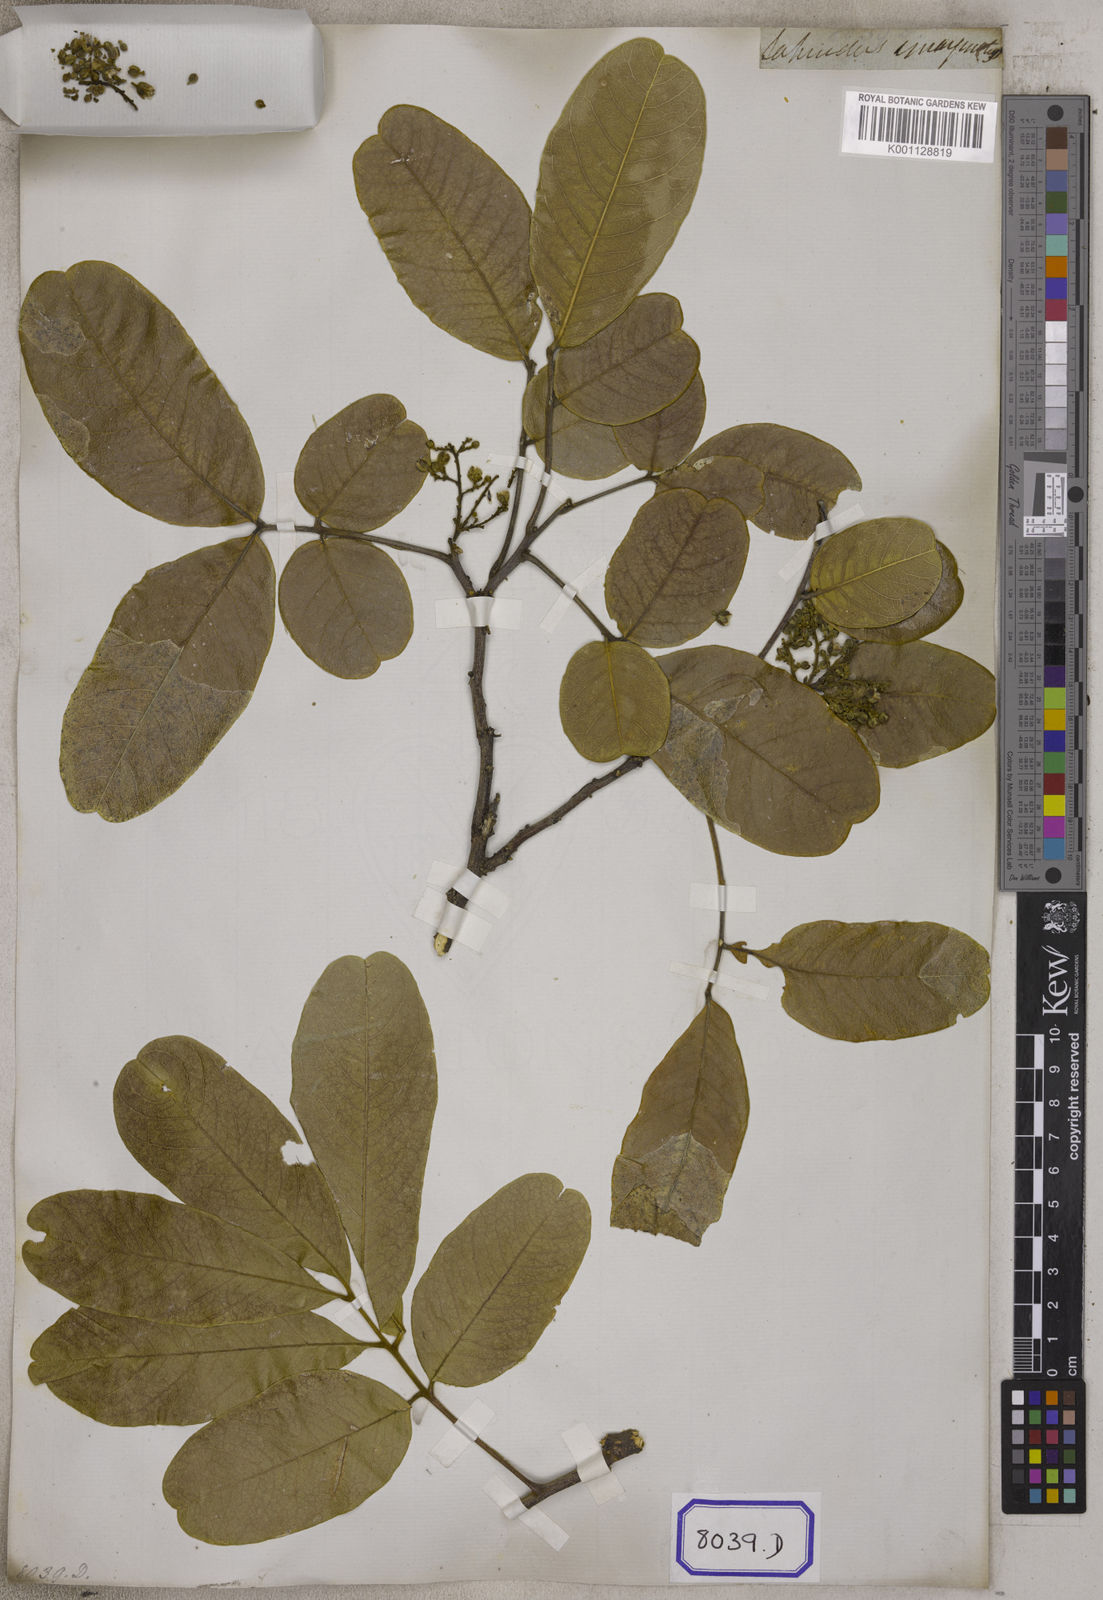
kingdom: Plantae
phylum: Tracheophyta
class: Magnoliopsida
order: Sapindales
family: Sapindaceae
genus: Sapindus
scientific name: Sapindus emarginatus
